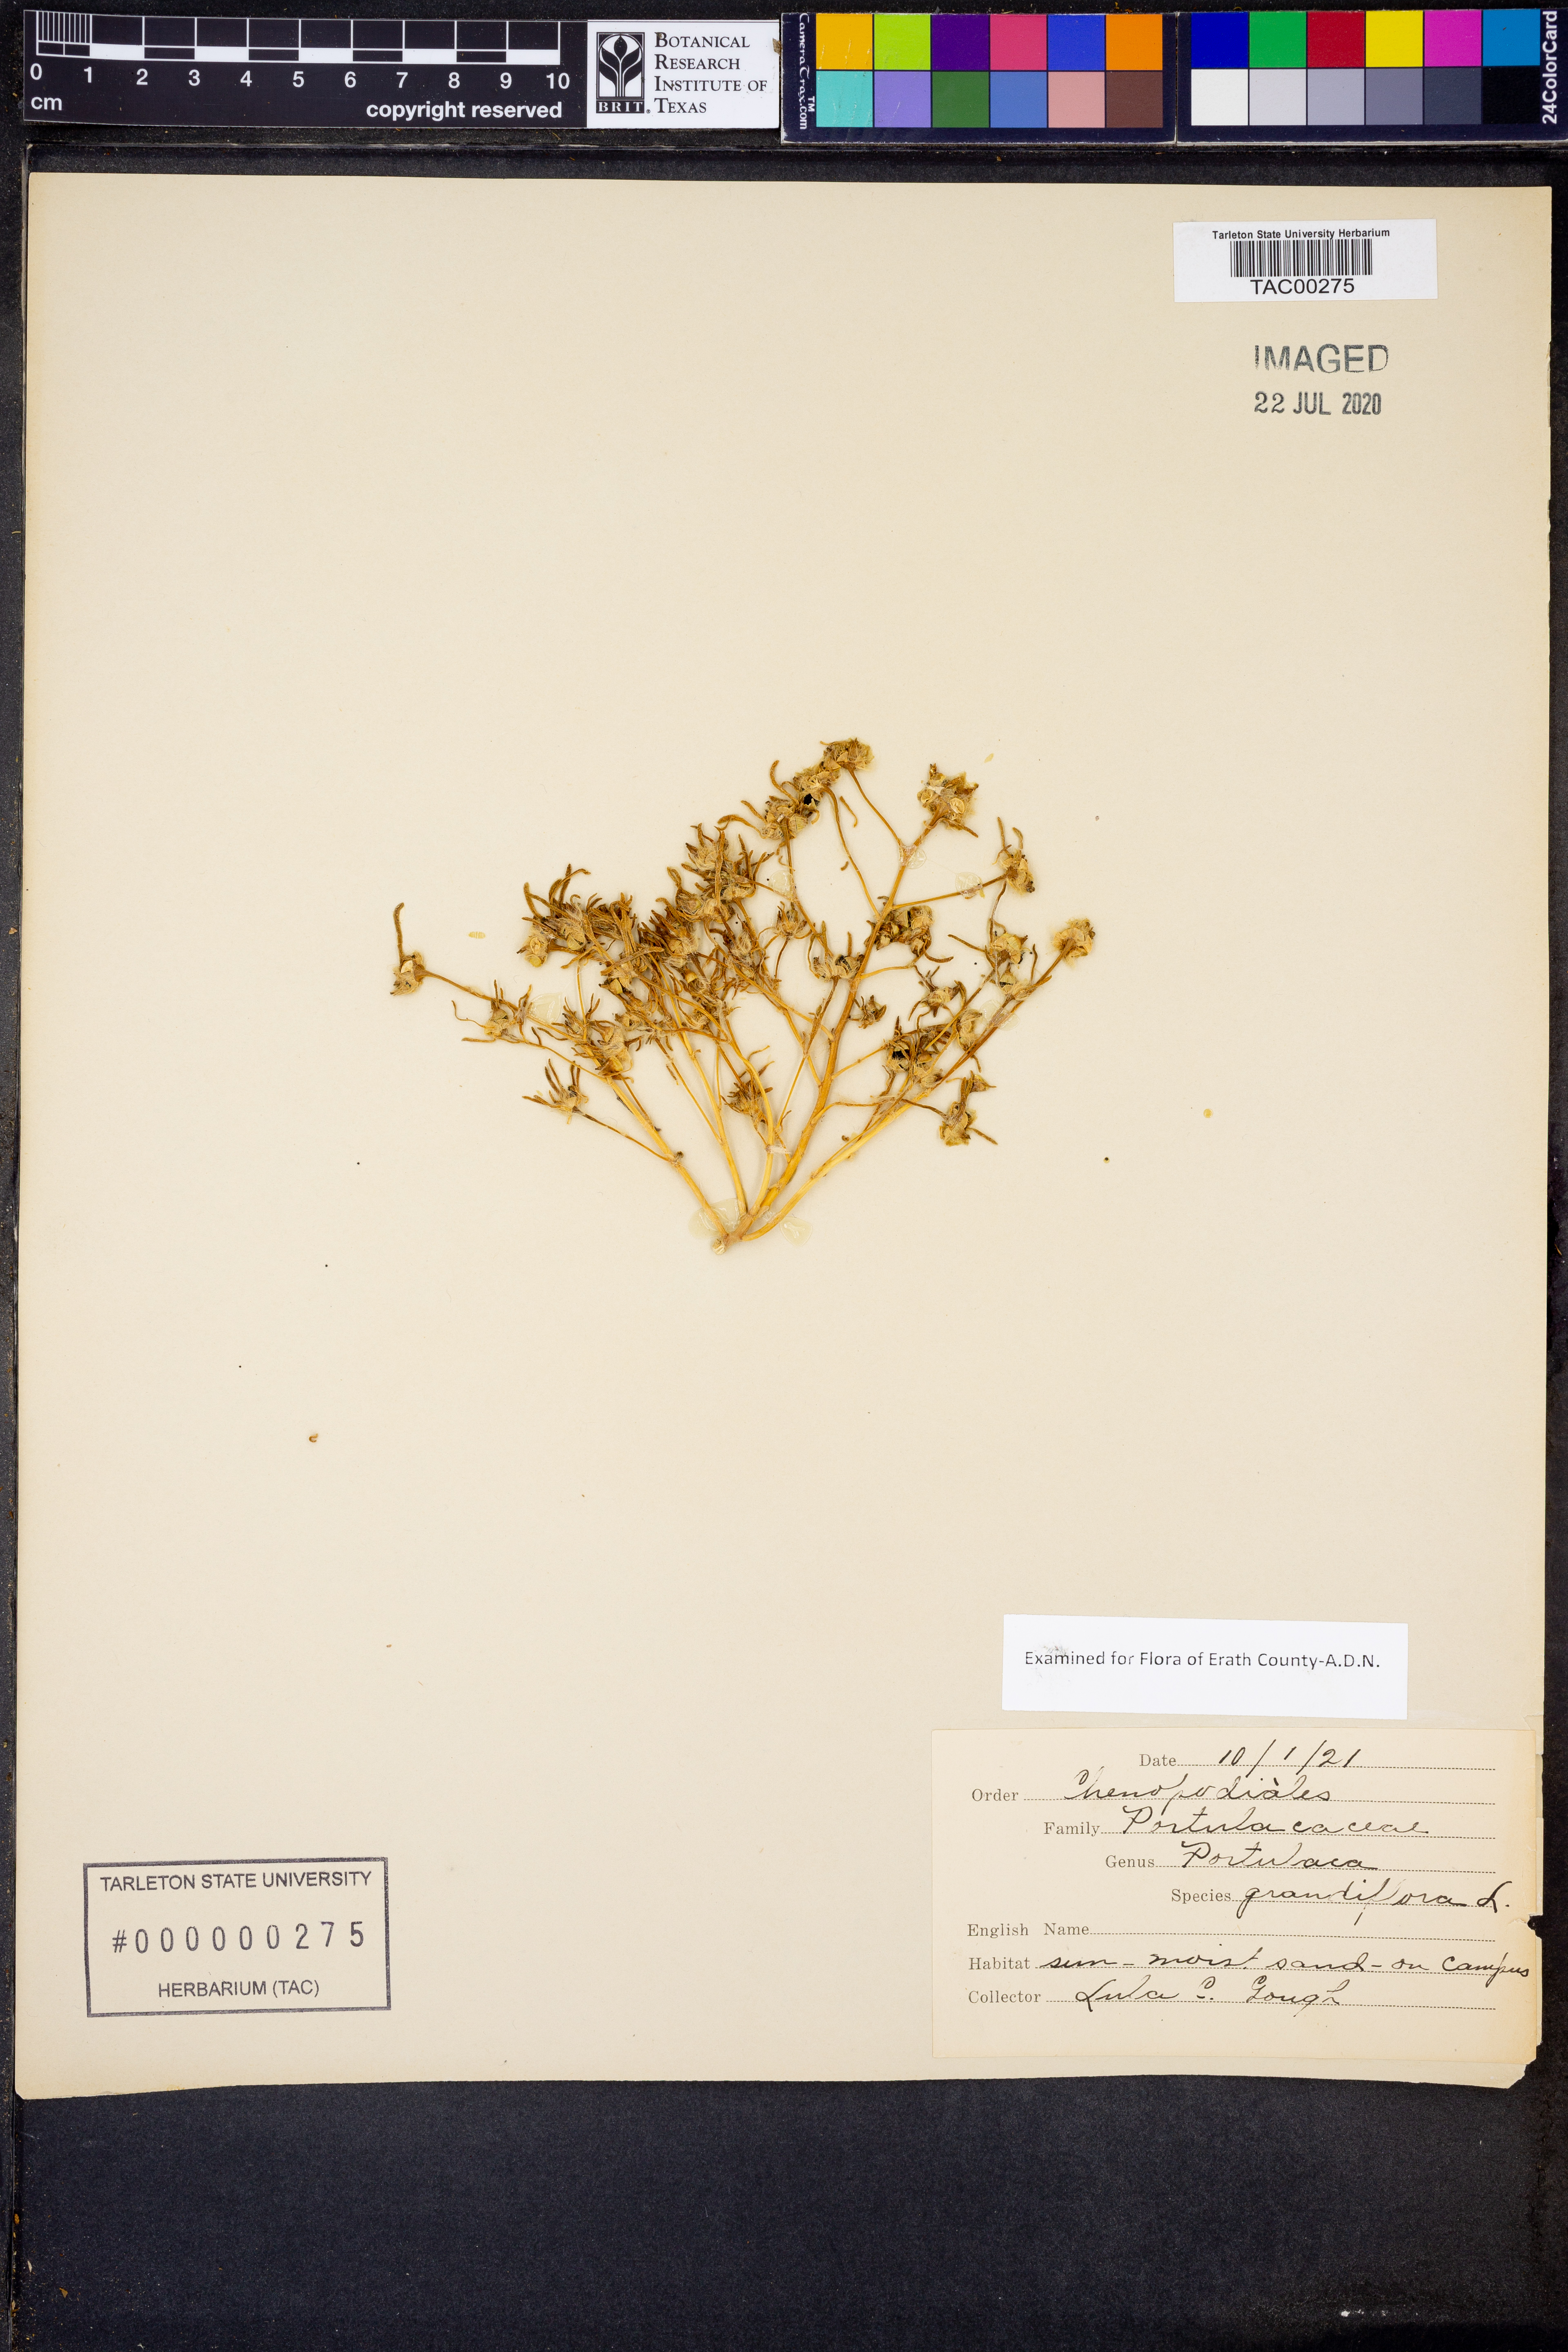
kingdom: Plantae
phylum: Tracheophyta
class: Magnoliopsida
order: Caryophyllales
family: Portulacaceae
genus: Portulaca
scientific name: Portulaca grandiflora
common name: Moss-rose
